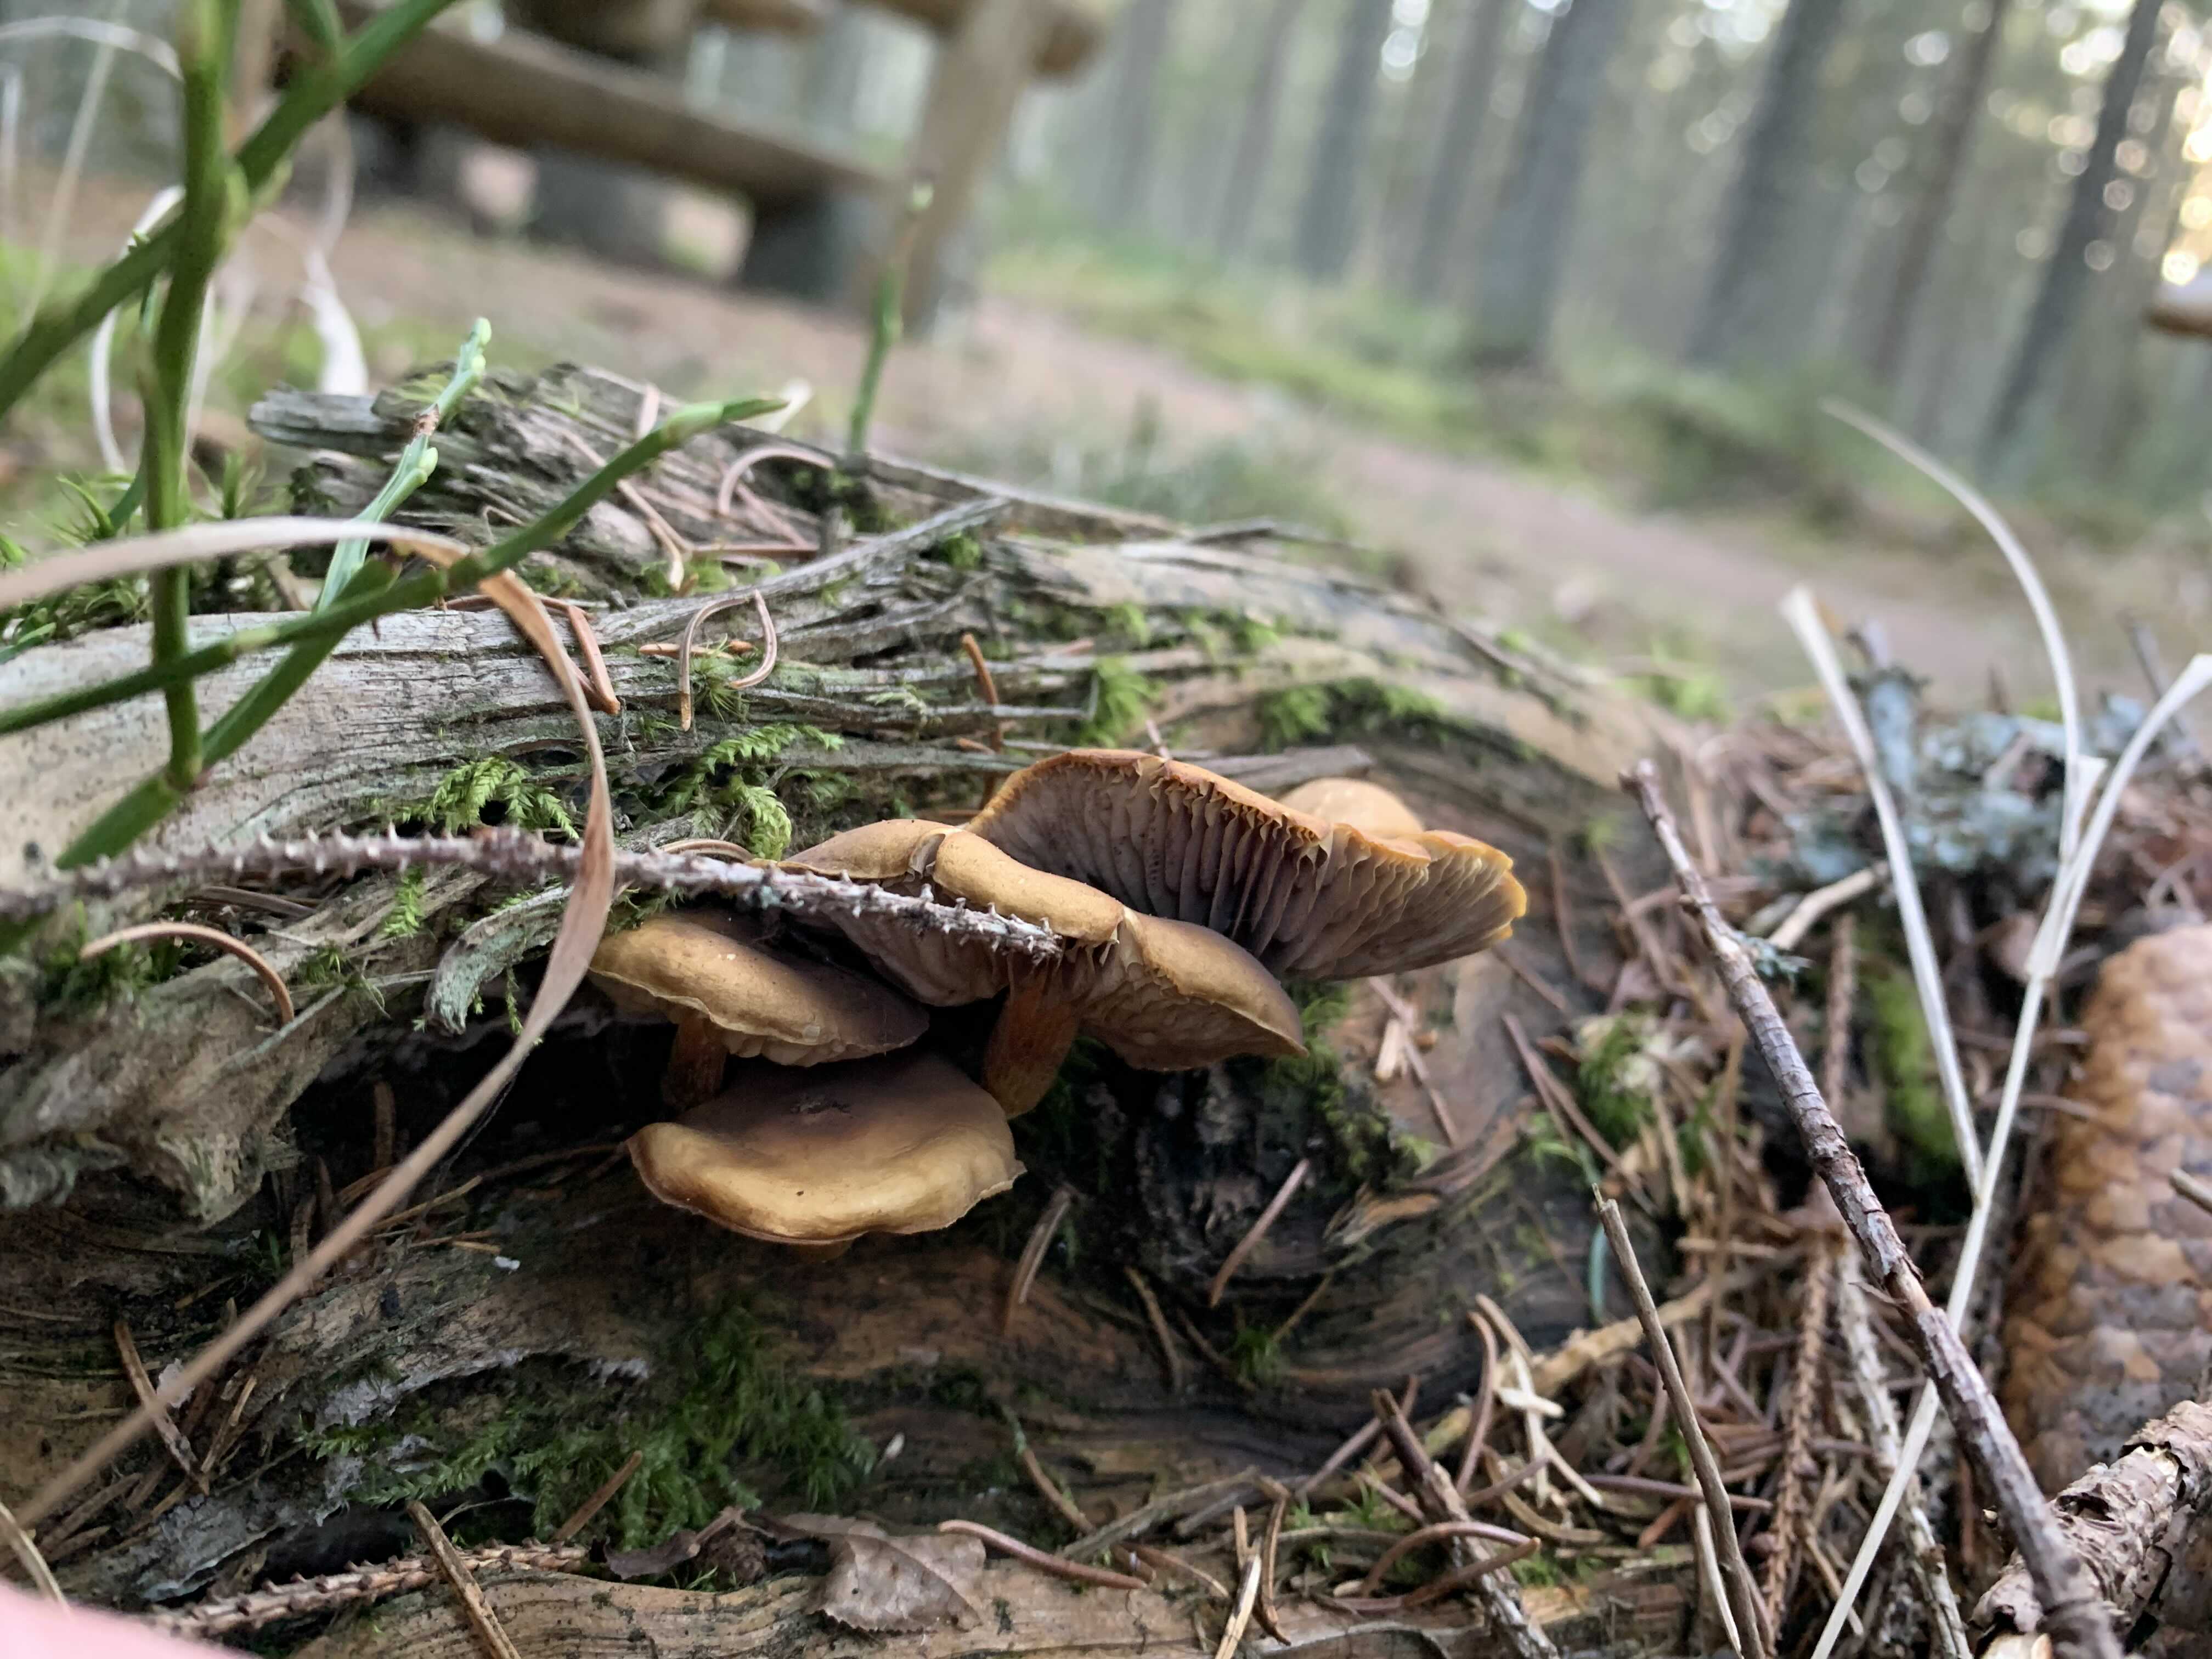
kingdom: Fungi
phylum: Basidiomycota
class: Agaricomycetes
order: Agaricales
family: Strophariaceae
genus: Hypholoma
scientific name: Hypholoma
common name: svovlhat
